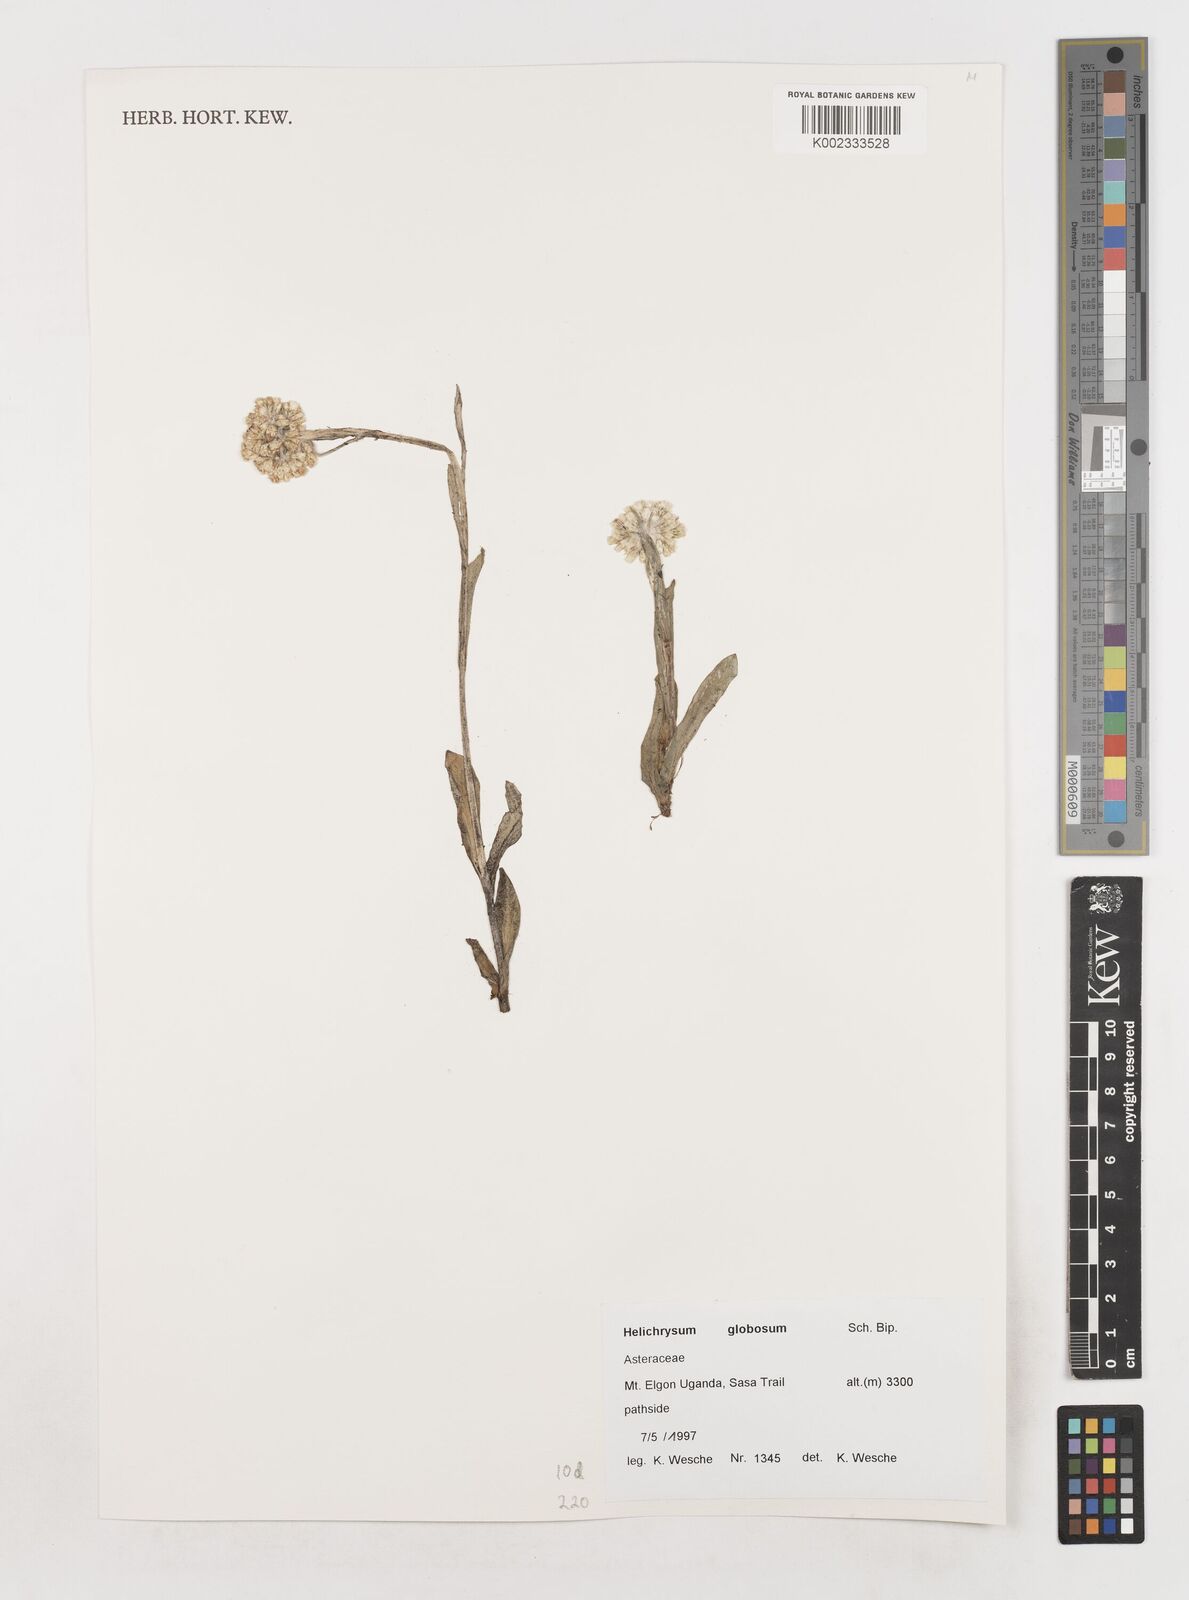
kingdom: Plantae
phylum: Tracheophyta
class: Magnoliopsida
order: Asterales
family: Asteraceae
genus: Helichrysum
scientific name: Helichrysum globosum
